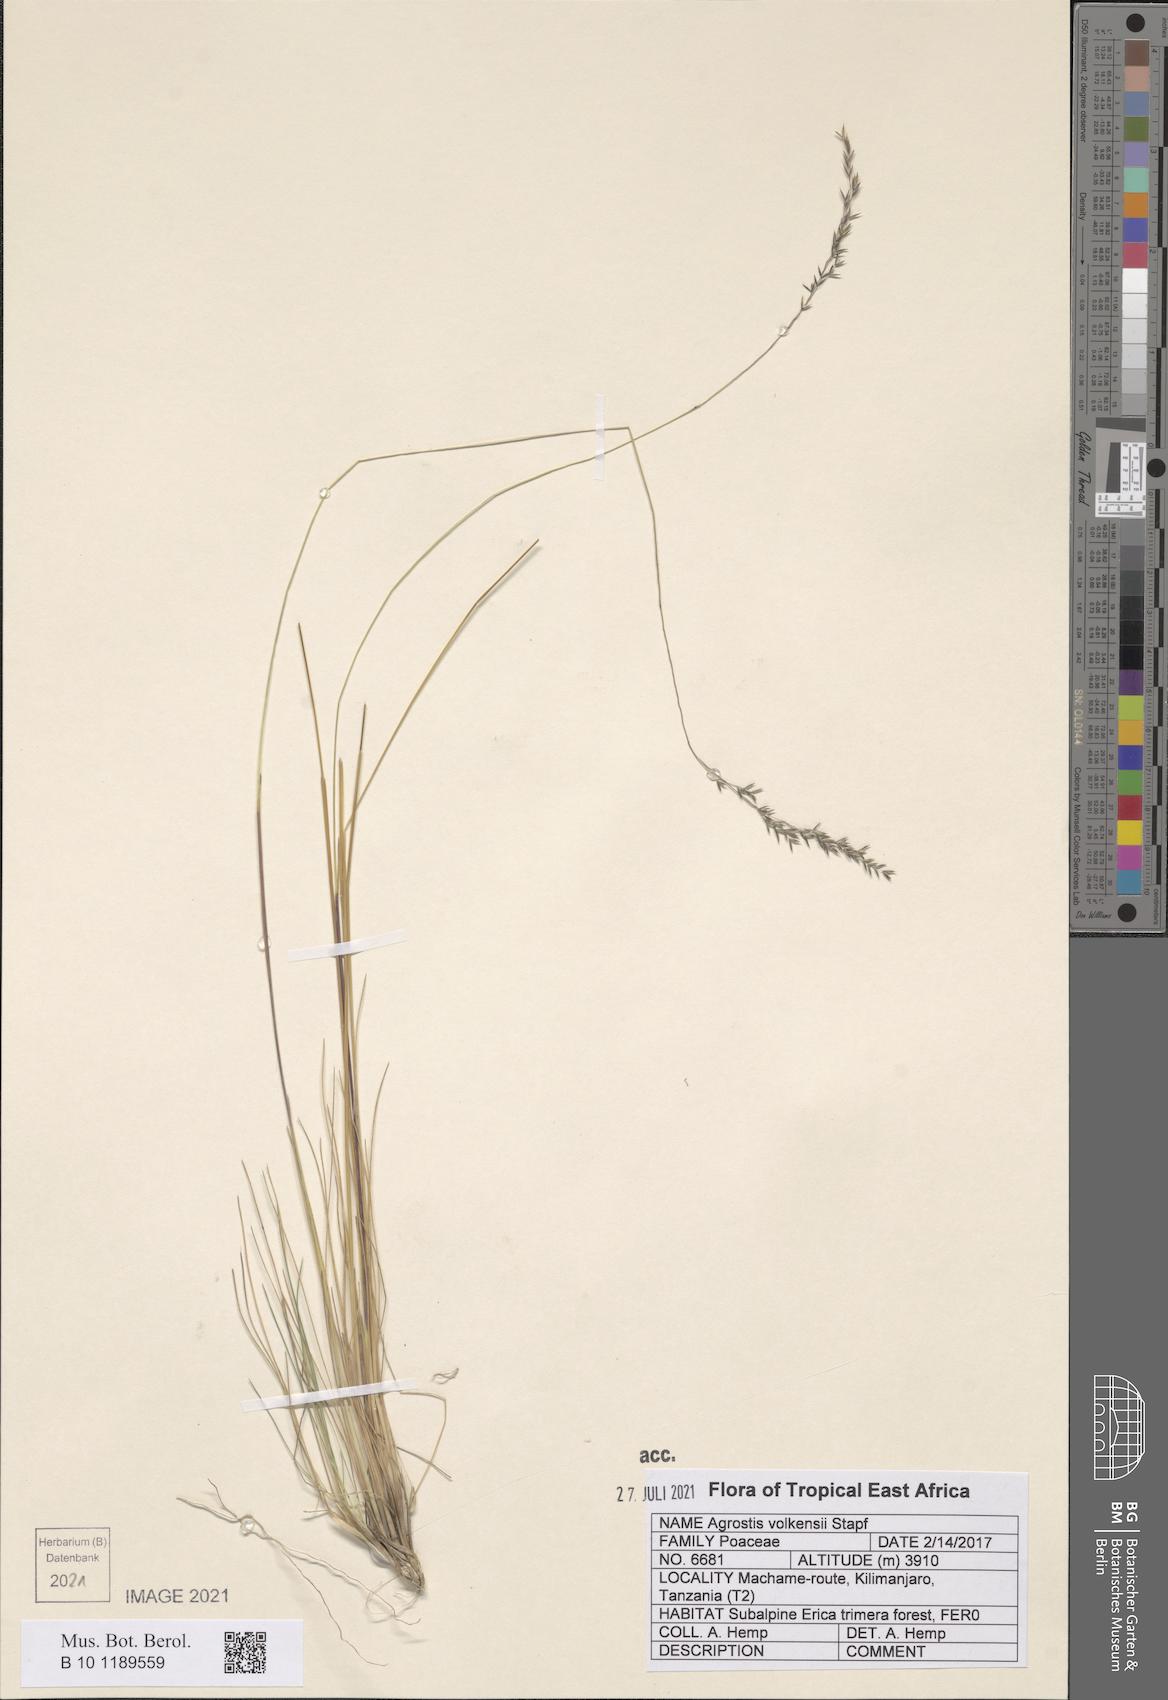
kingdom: Plantae
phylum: Tracheophyta
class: Liliopsida
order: Poales
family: Poaceae
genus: Agrostis
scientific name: Agrostis volkensii
